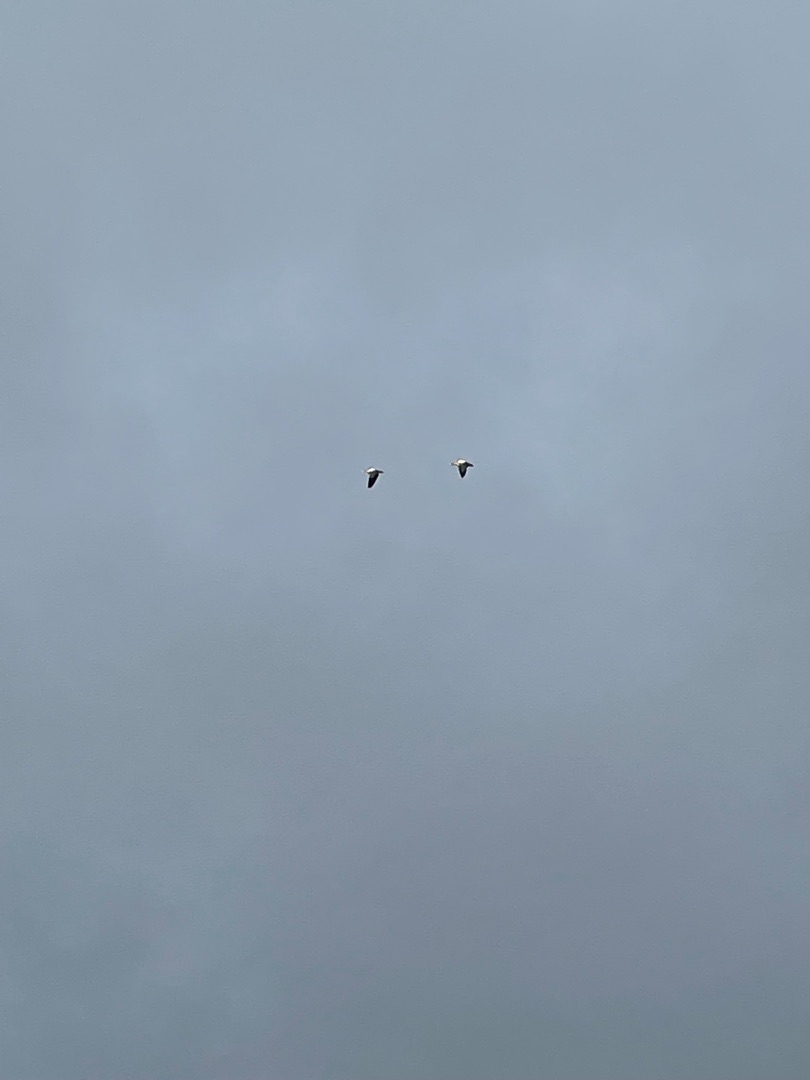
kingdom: Animalia
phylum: Chordata
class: Aves
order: Anseriformes
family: Anatidae
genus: Alopochen
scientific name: Alopochen aegyptiaca
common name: Nilgås
